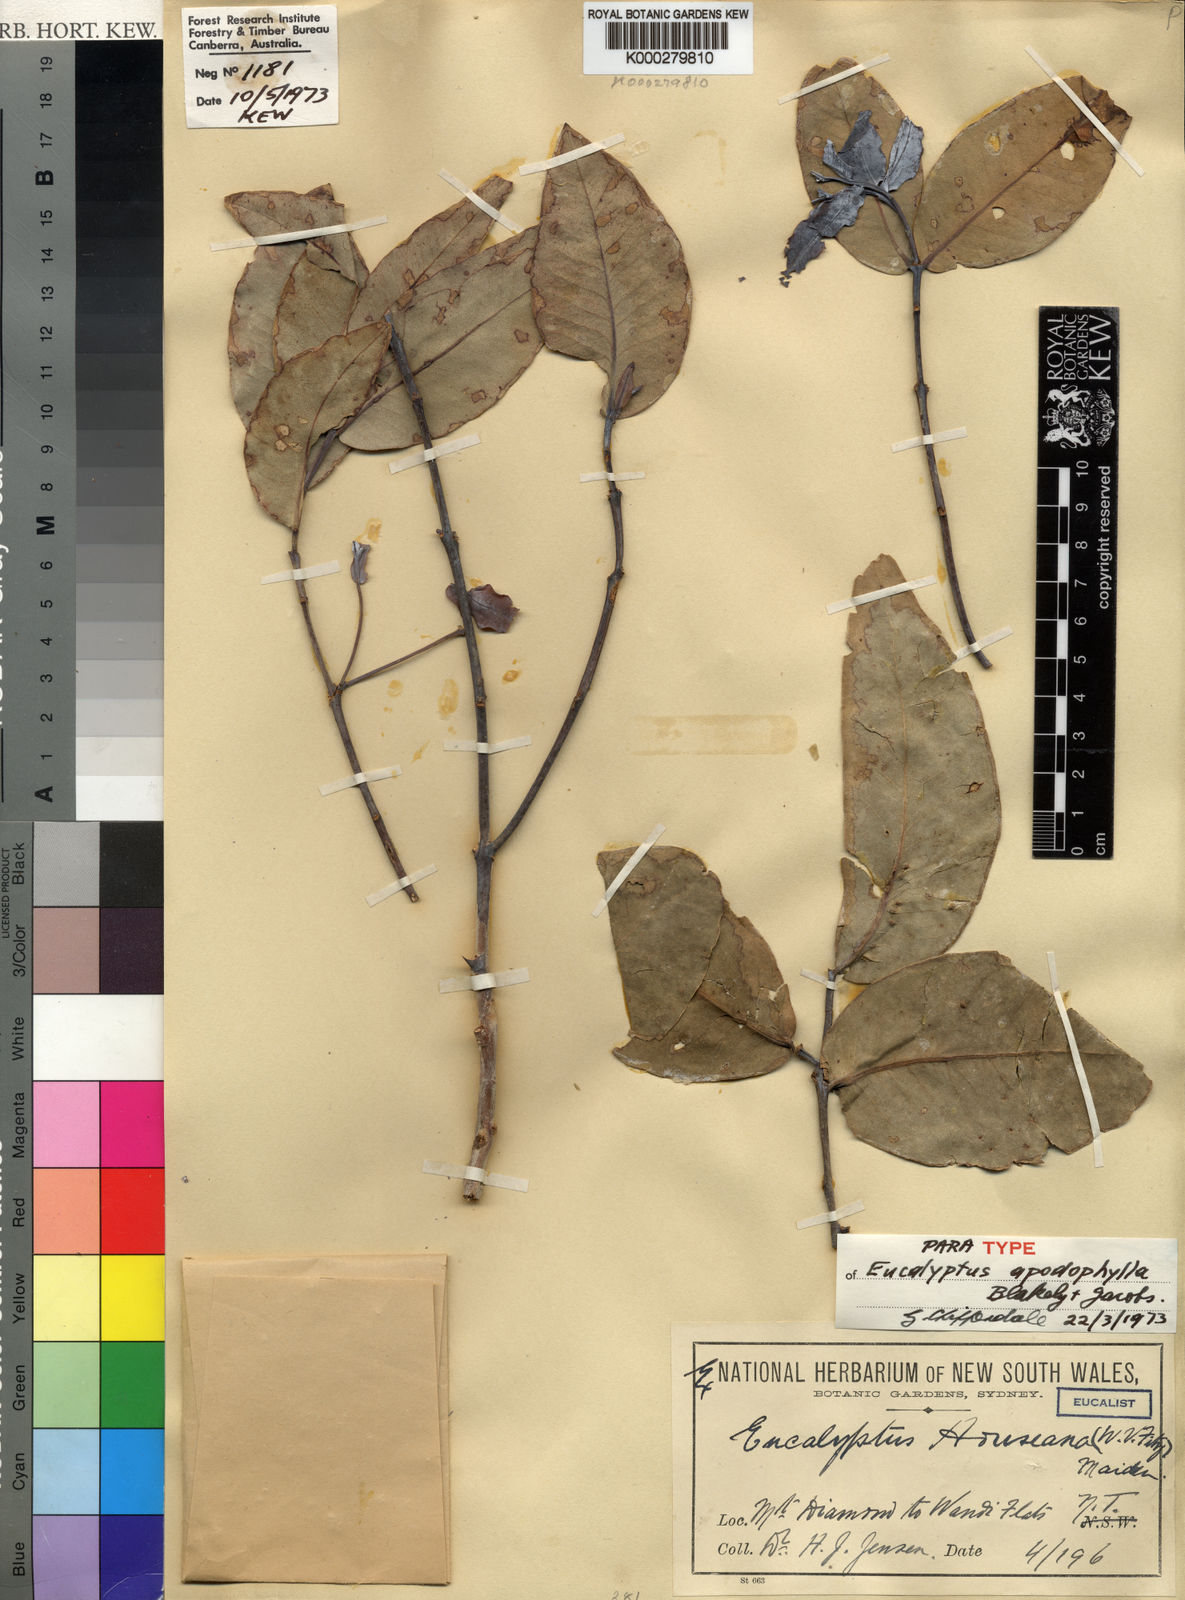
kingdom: Plantae
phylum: Tracheophyta
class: Magnoliopsida
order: Myrtales
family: Myrtaceae
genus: Eucalyptus
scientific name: Eucalyptus houseana
